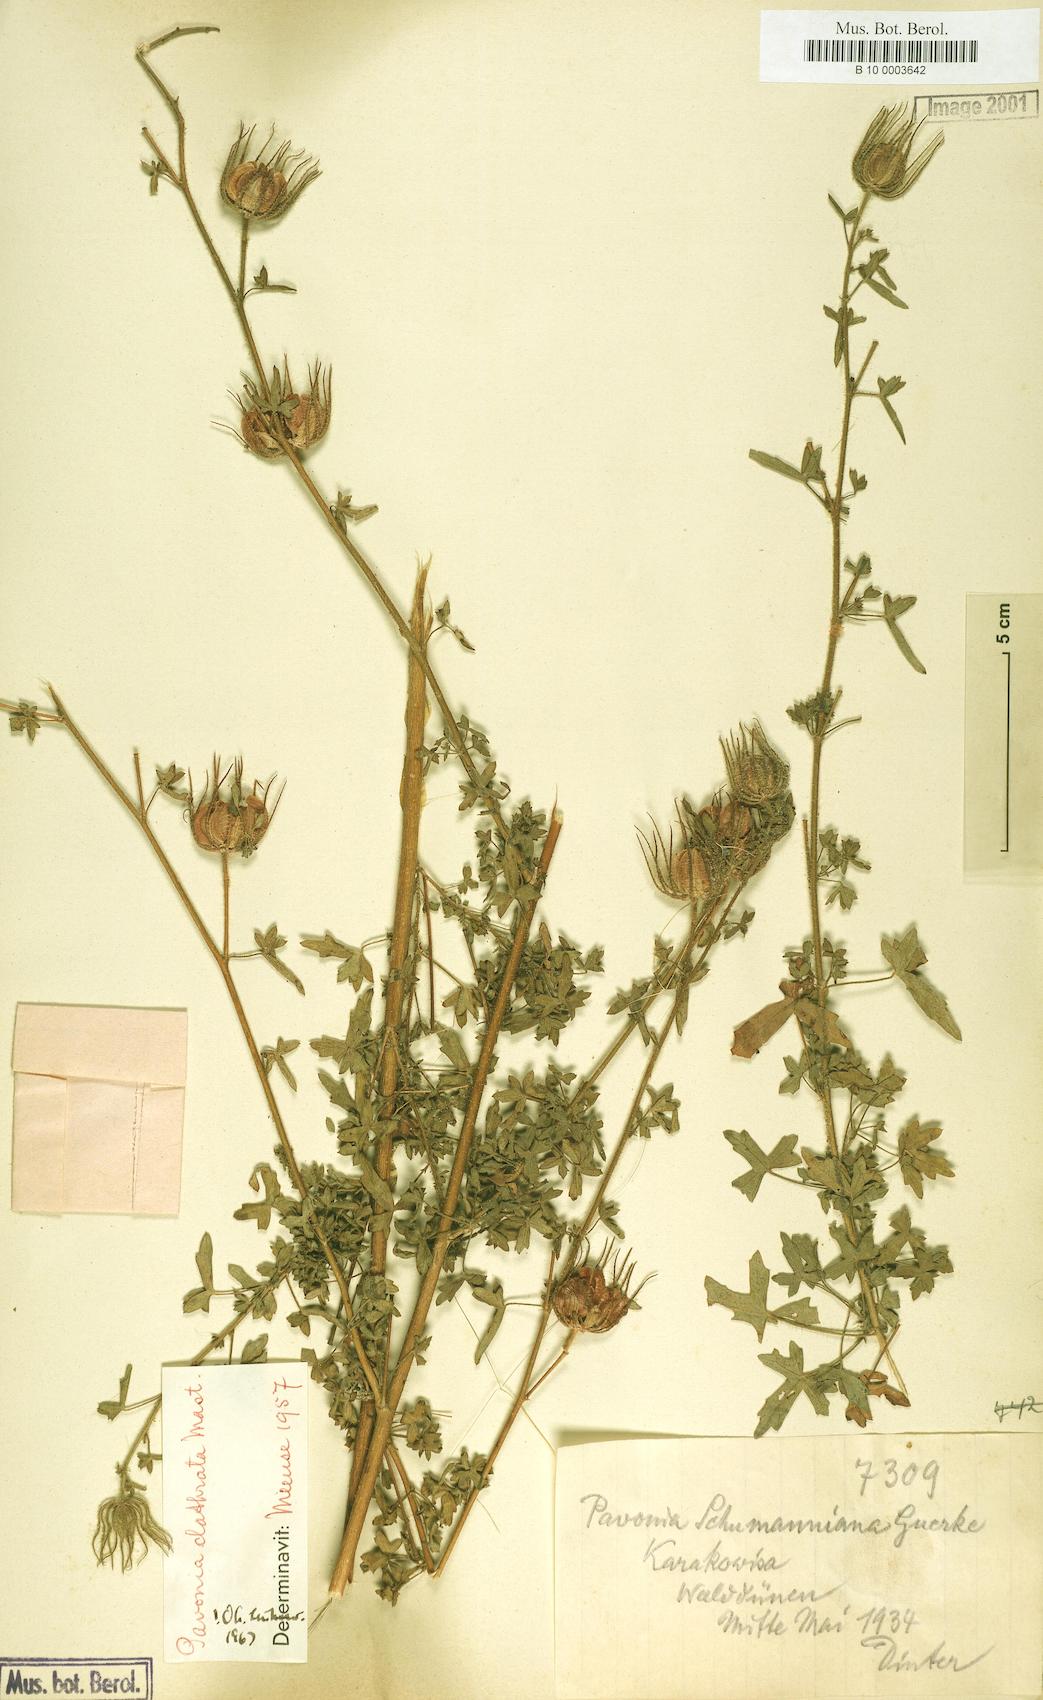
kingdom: Plantae
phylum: Tracheophyta
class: Magnoliopsida
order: Malvales
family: Malvaceae
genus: Pavonia
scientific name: Pavonia clathrata
